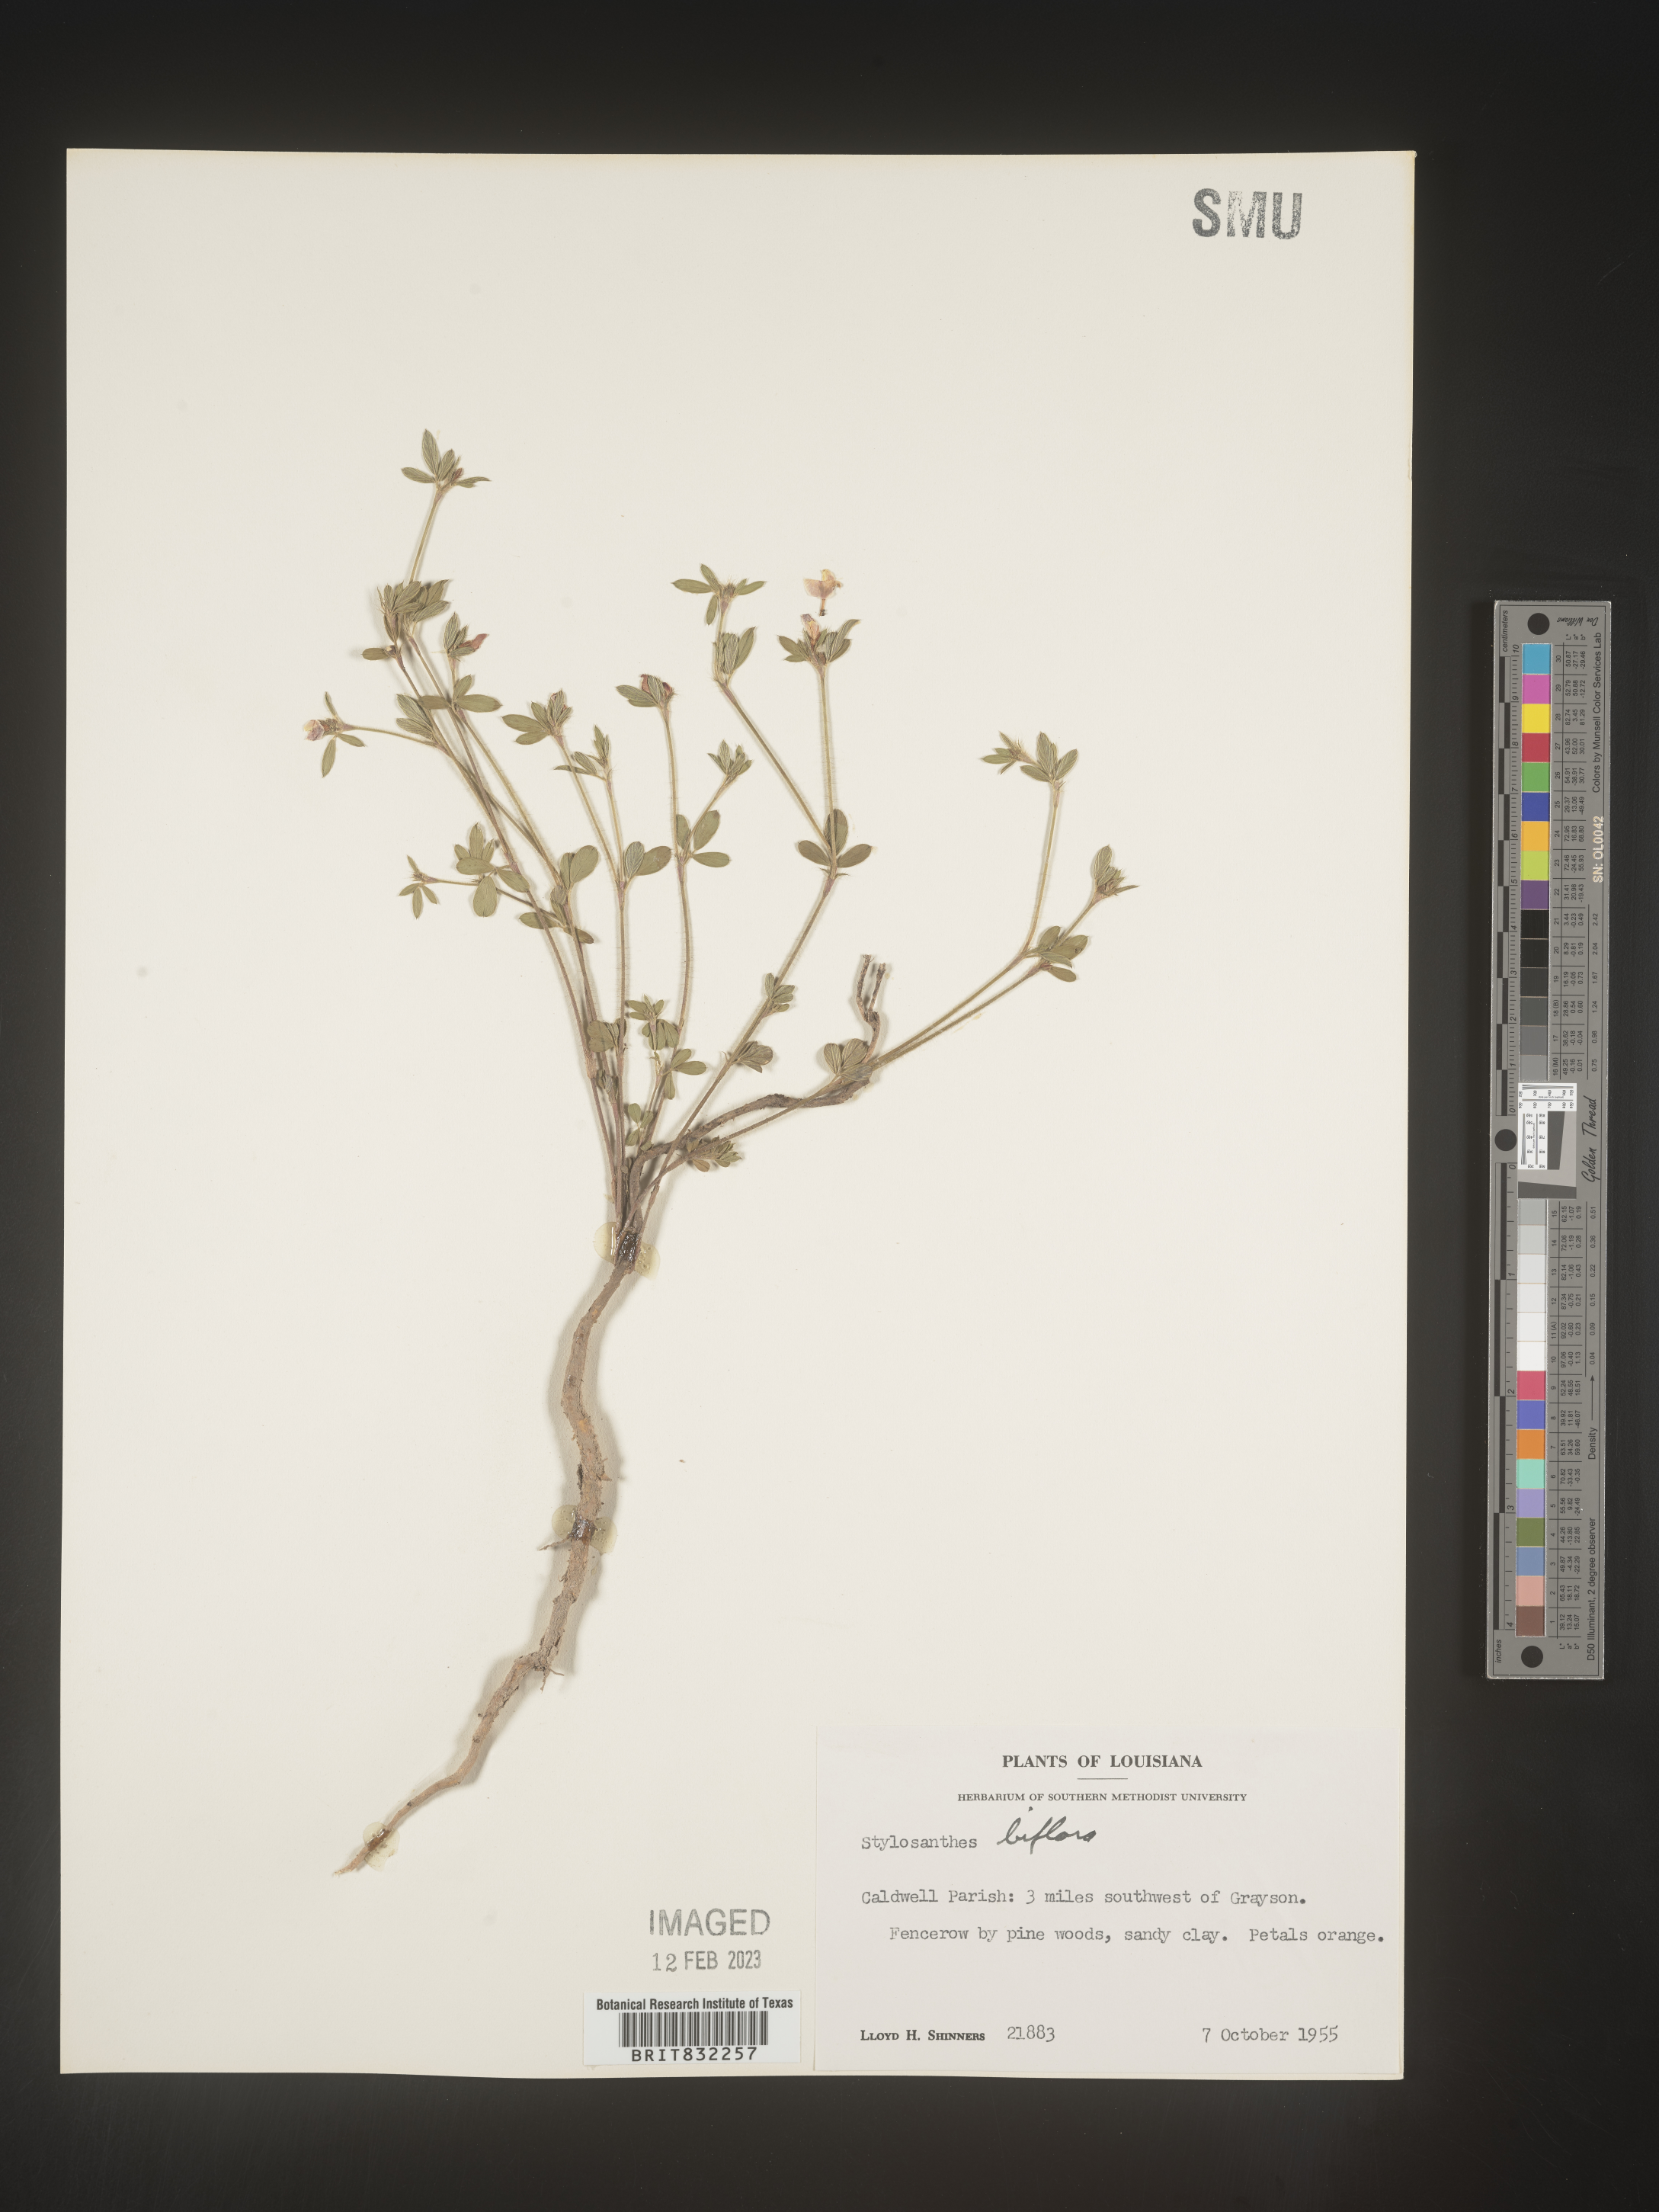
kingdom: Plantae
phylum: Tracheophyta
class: Magnoliopsida
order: Fabales
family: Fabaceae
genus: Stylosanthes
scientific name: Stylosanthes biflora
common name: Two-flower pencil-flower
